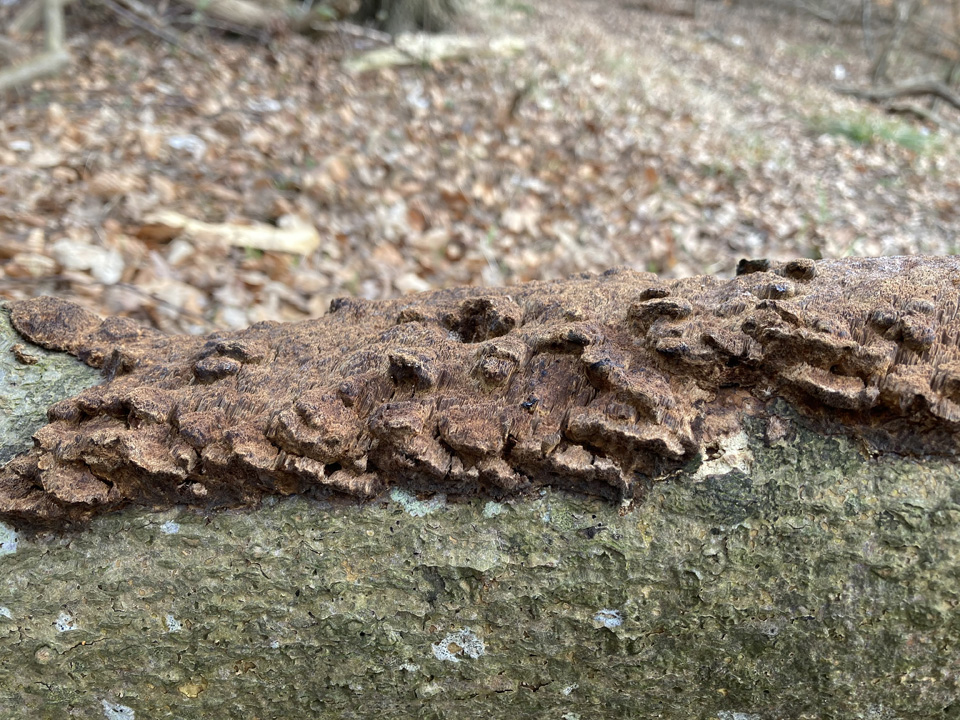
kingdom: Fungi
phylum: Basidiomycota
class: Agaricomycetes
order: Hymenochaetales
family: Hymenochaetaceae
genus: Mensularia
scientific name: Mensularia nodulosa
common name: bøge-spejlporesvamp
